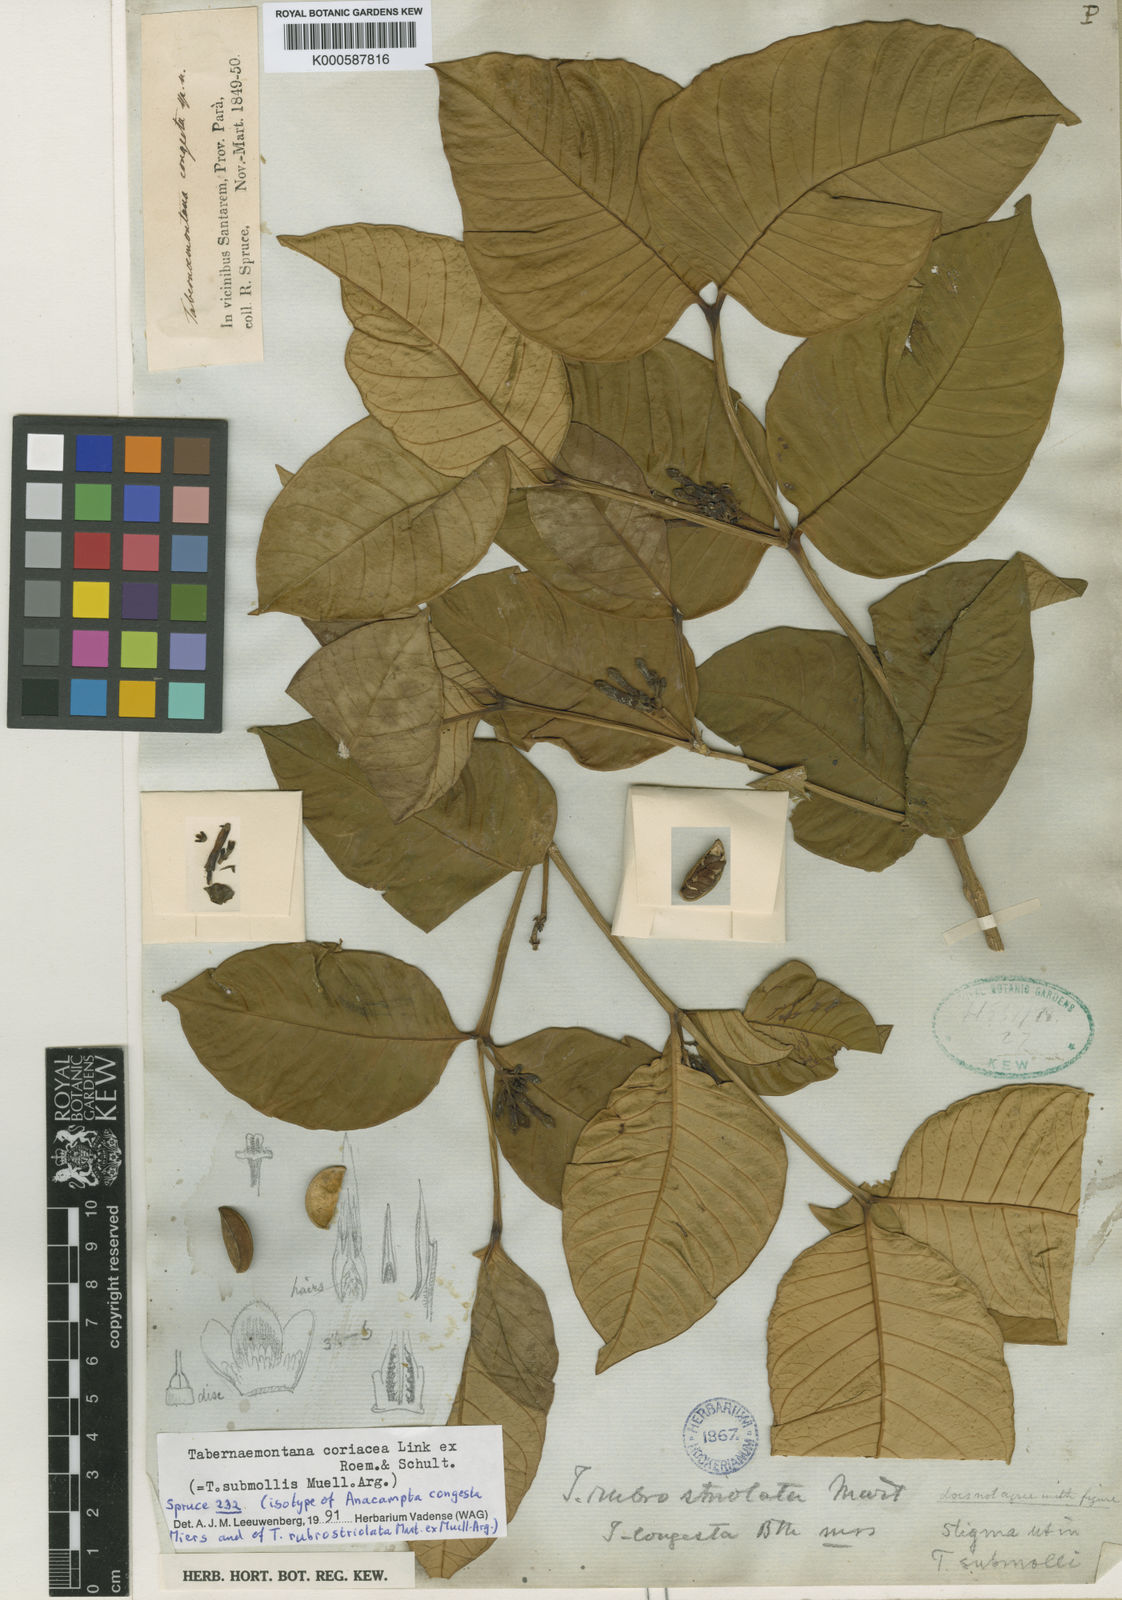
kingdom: Plantae
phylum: Tracheophyta
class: Magnoliopsida
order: Gentianales
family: Apocynaceae
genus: Tabernaemontana
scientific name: Tabernaemontana
